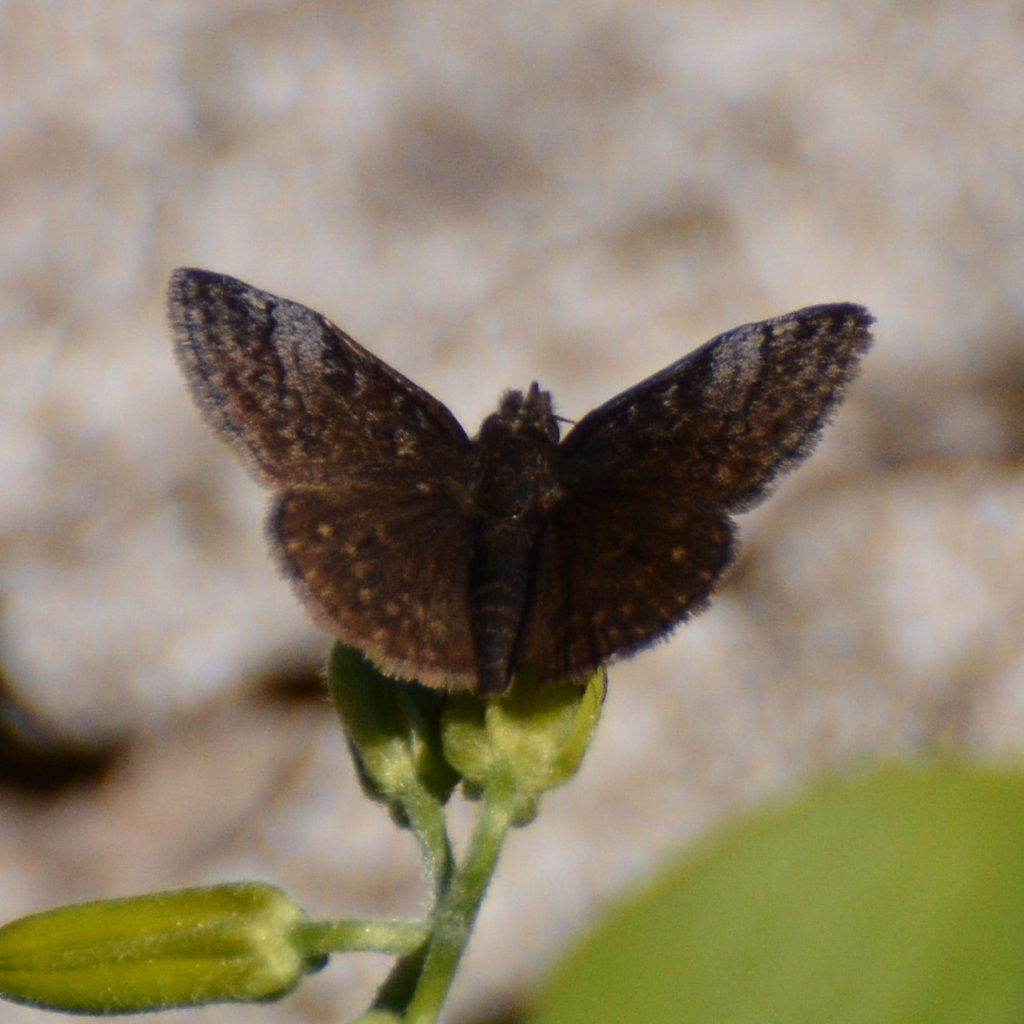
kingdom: Animalia
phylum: Arthropoda
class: Insecta
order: Lepidoptera
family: Hesperiidae
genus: Erynnis
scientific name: Erynnis icelus
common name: Dreamy Duskywing
